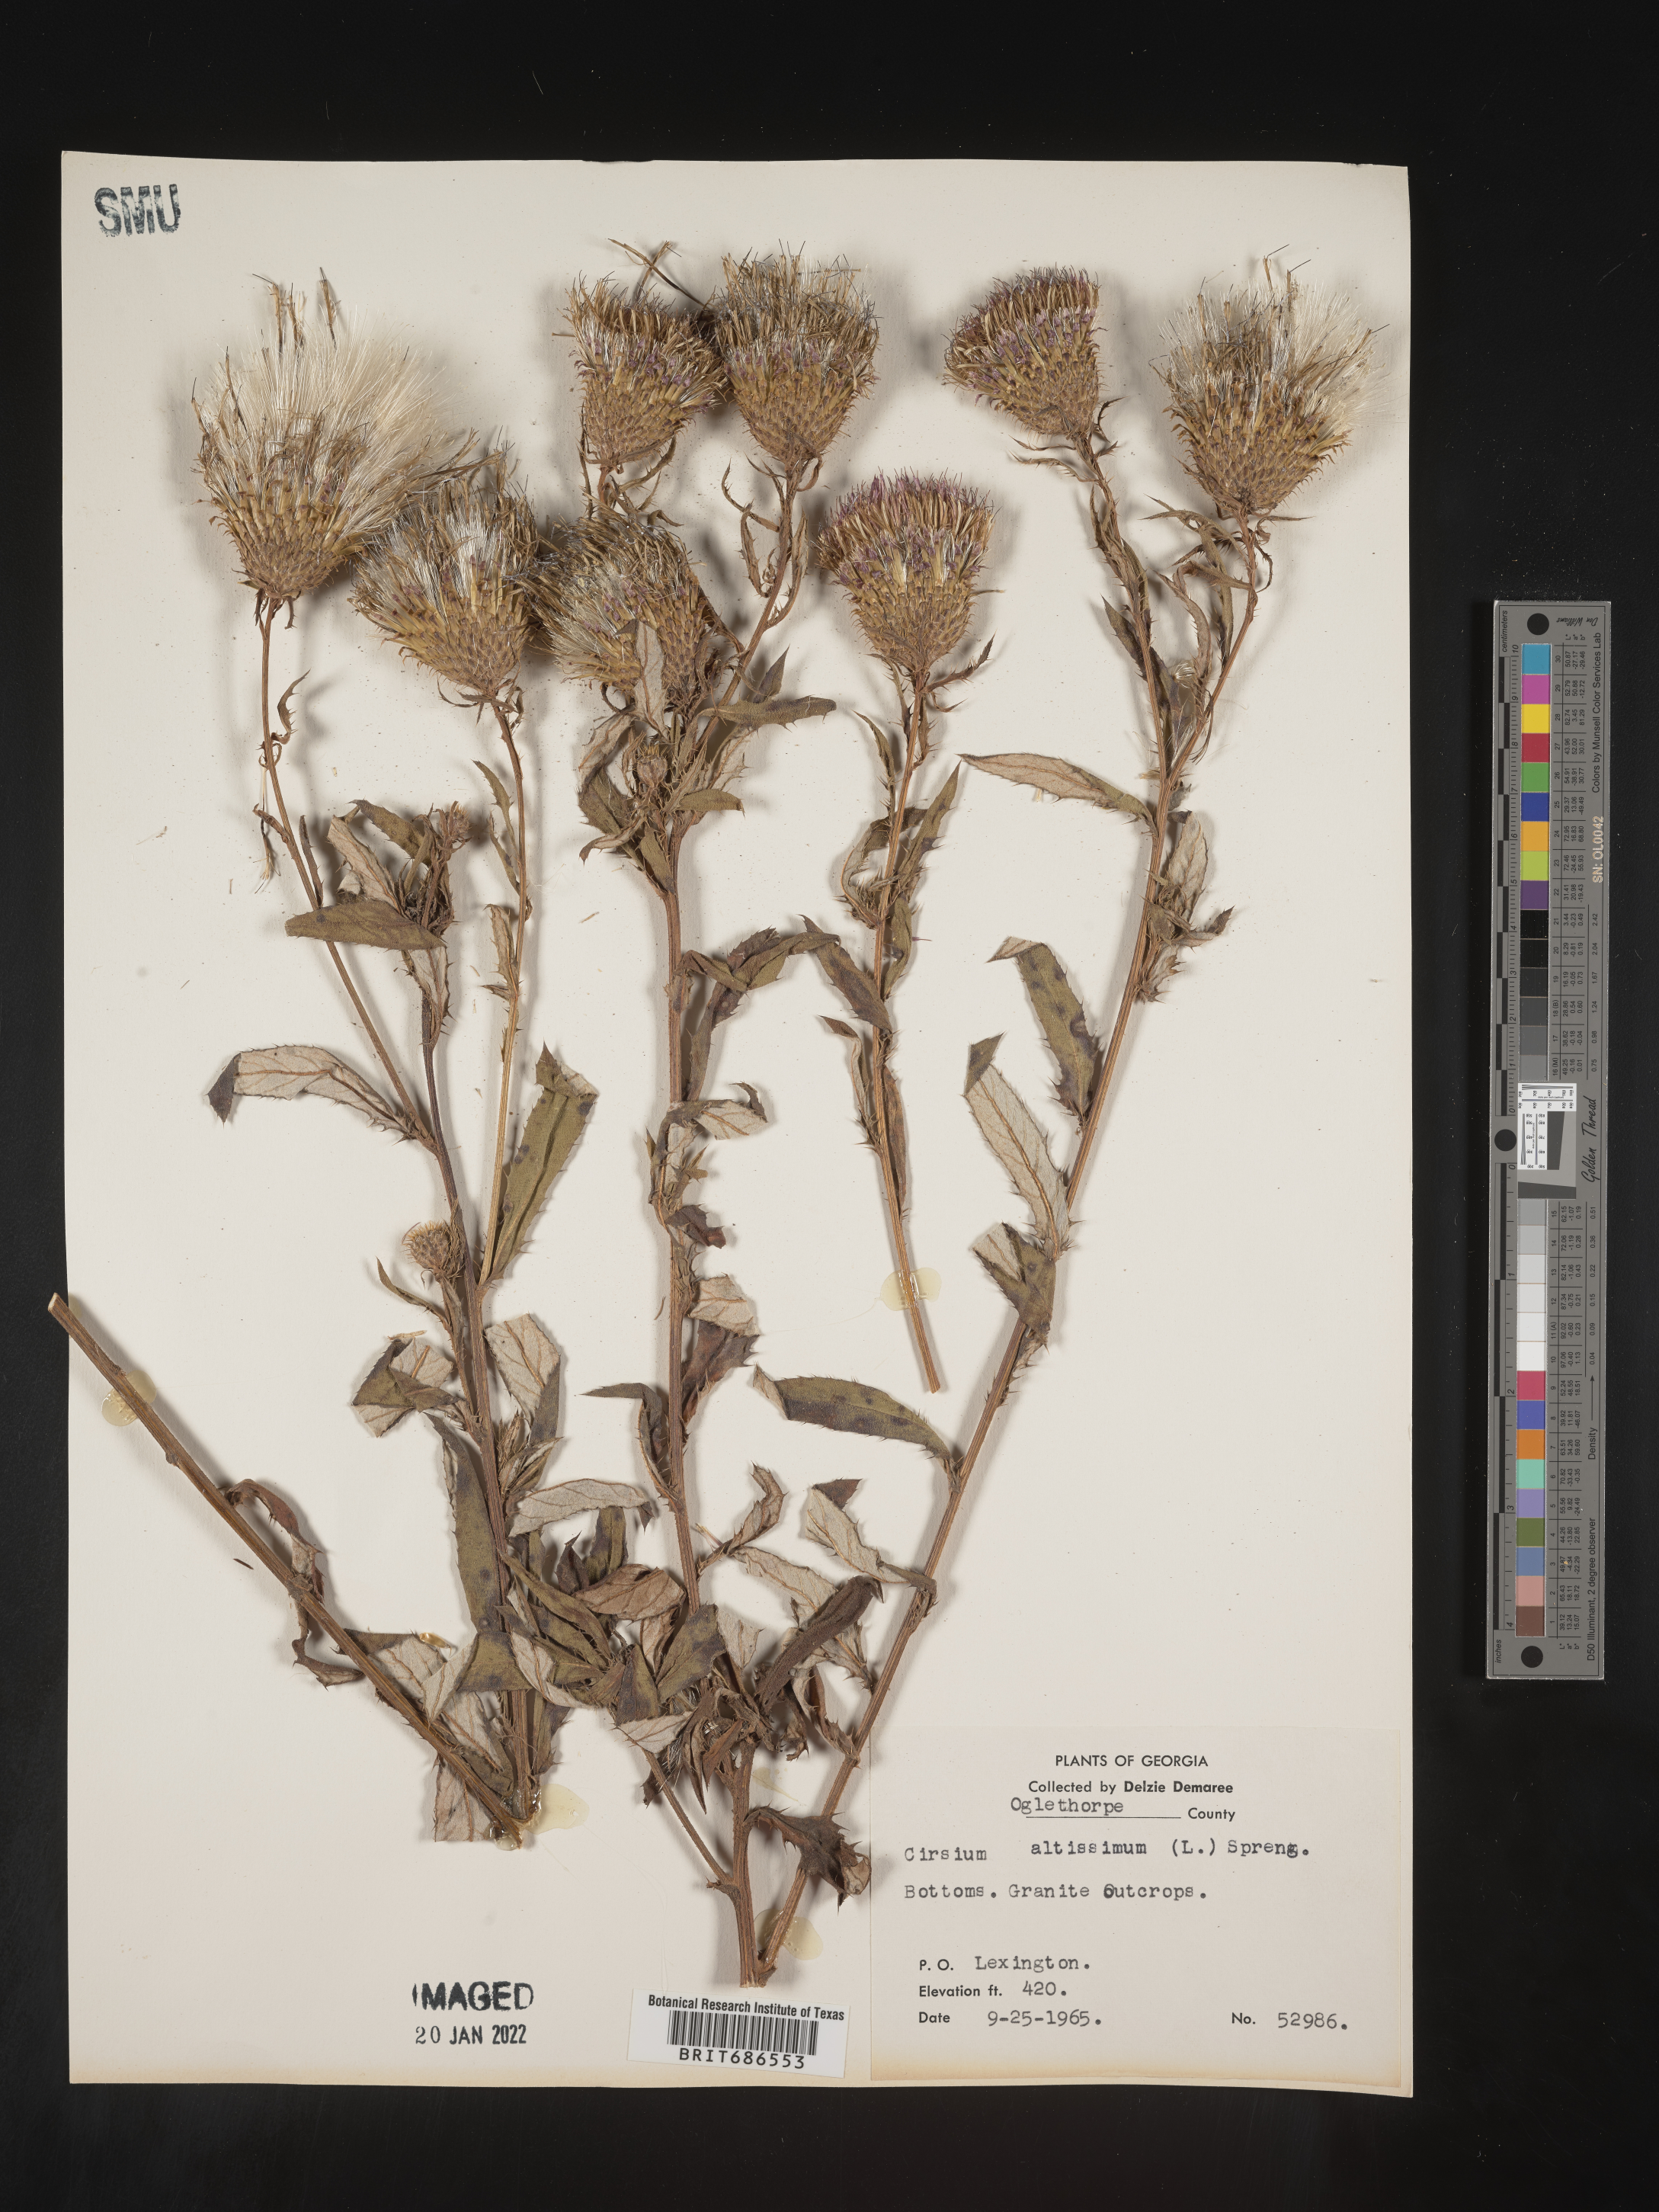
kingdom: Plantae
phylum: Tracheophyta
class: Magnoliopsida
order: Asterales
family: Asteraceae
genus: Cirsium
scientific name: Cirsium palustre
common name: Marsh thistle
